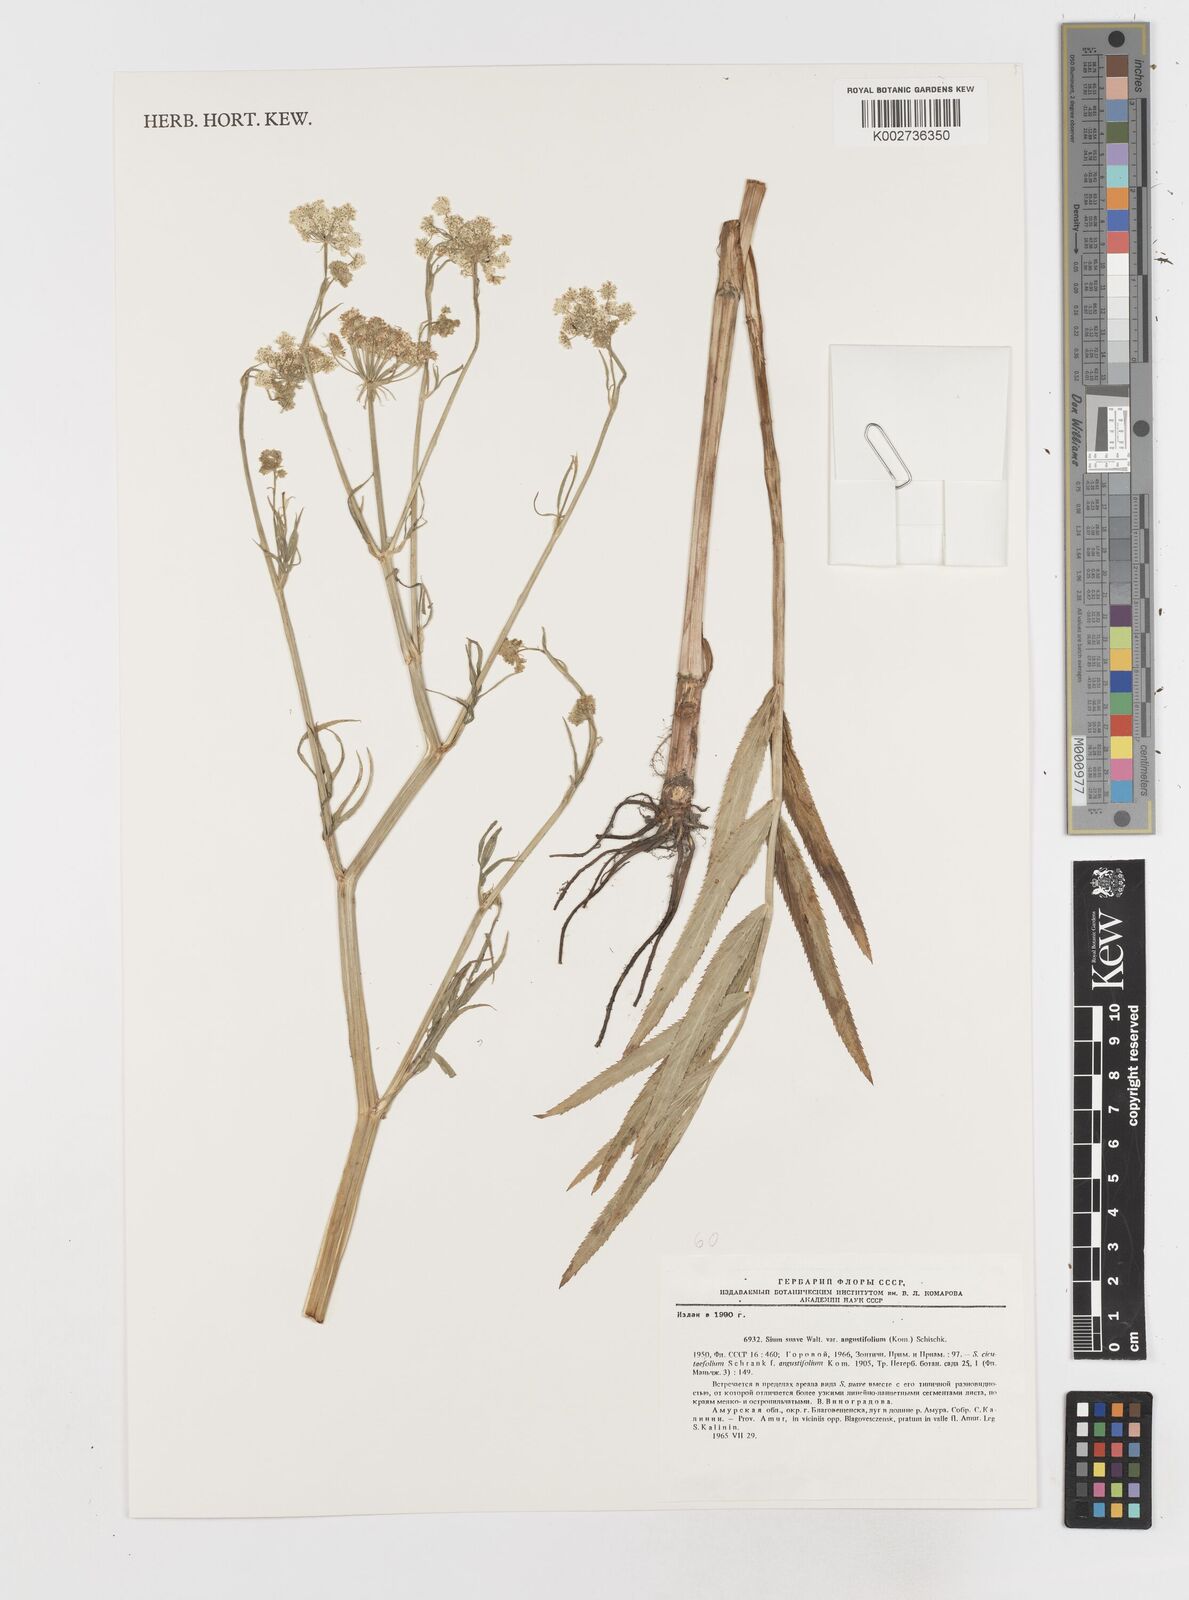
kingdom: Plantae
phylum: Tracheophyta
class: Magnoliopsida
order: Apiales
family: Apiaceae
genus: Sium
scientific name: Sium suave
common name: Hemlock water-parsnip
